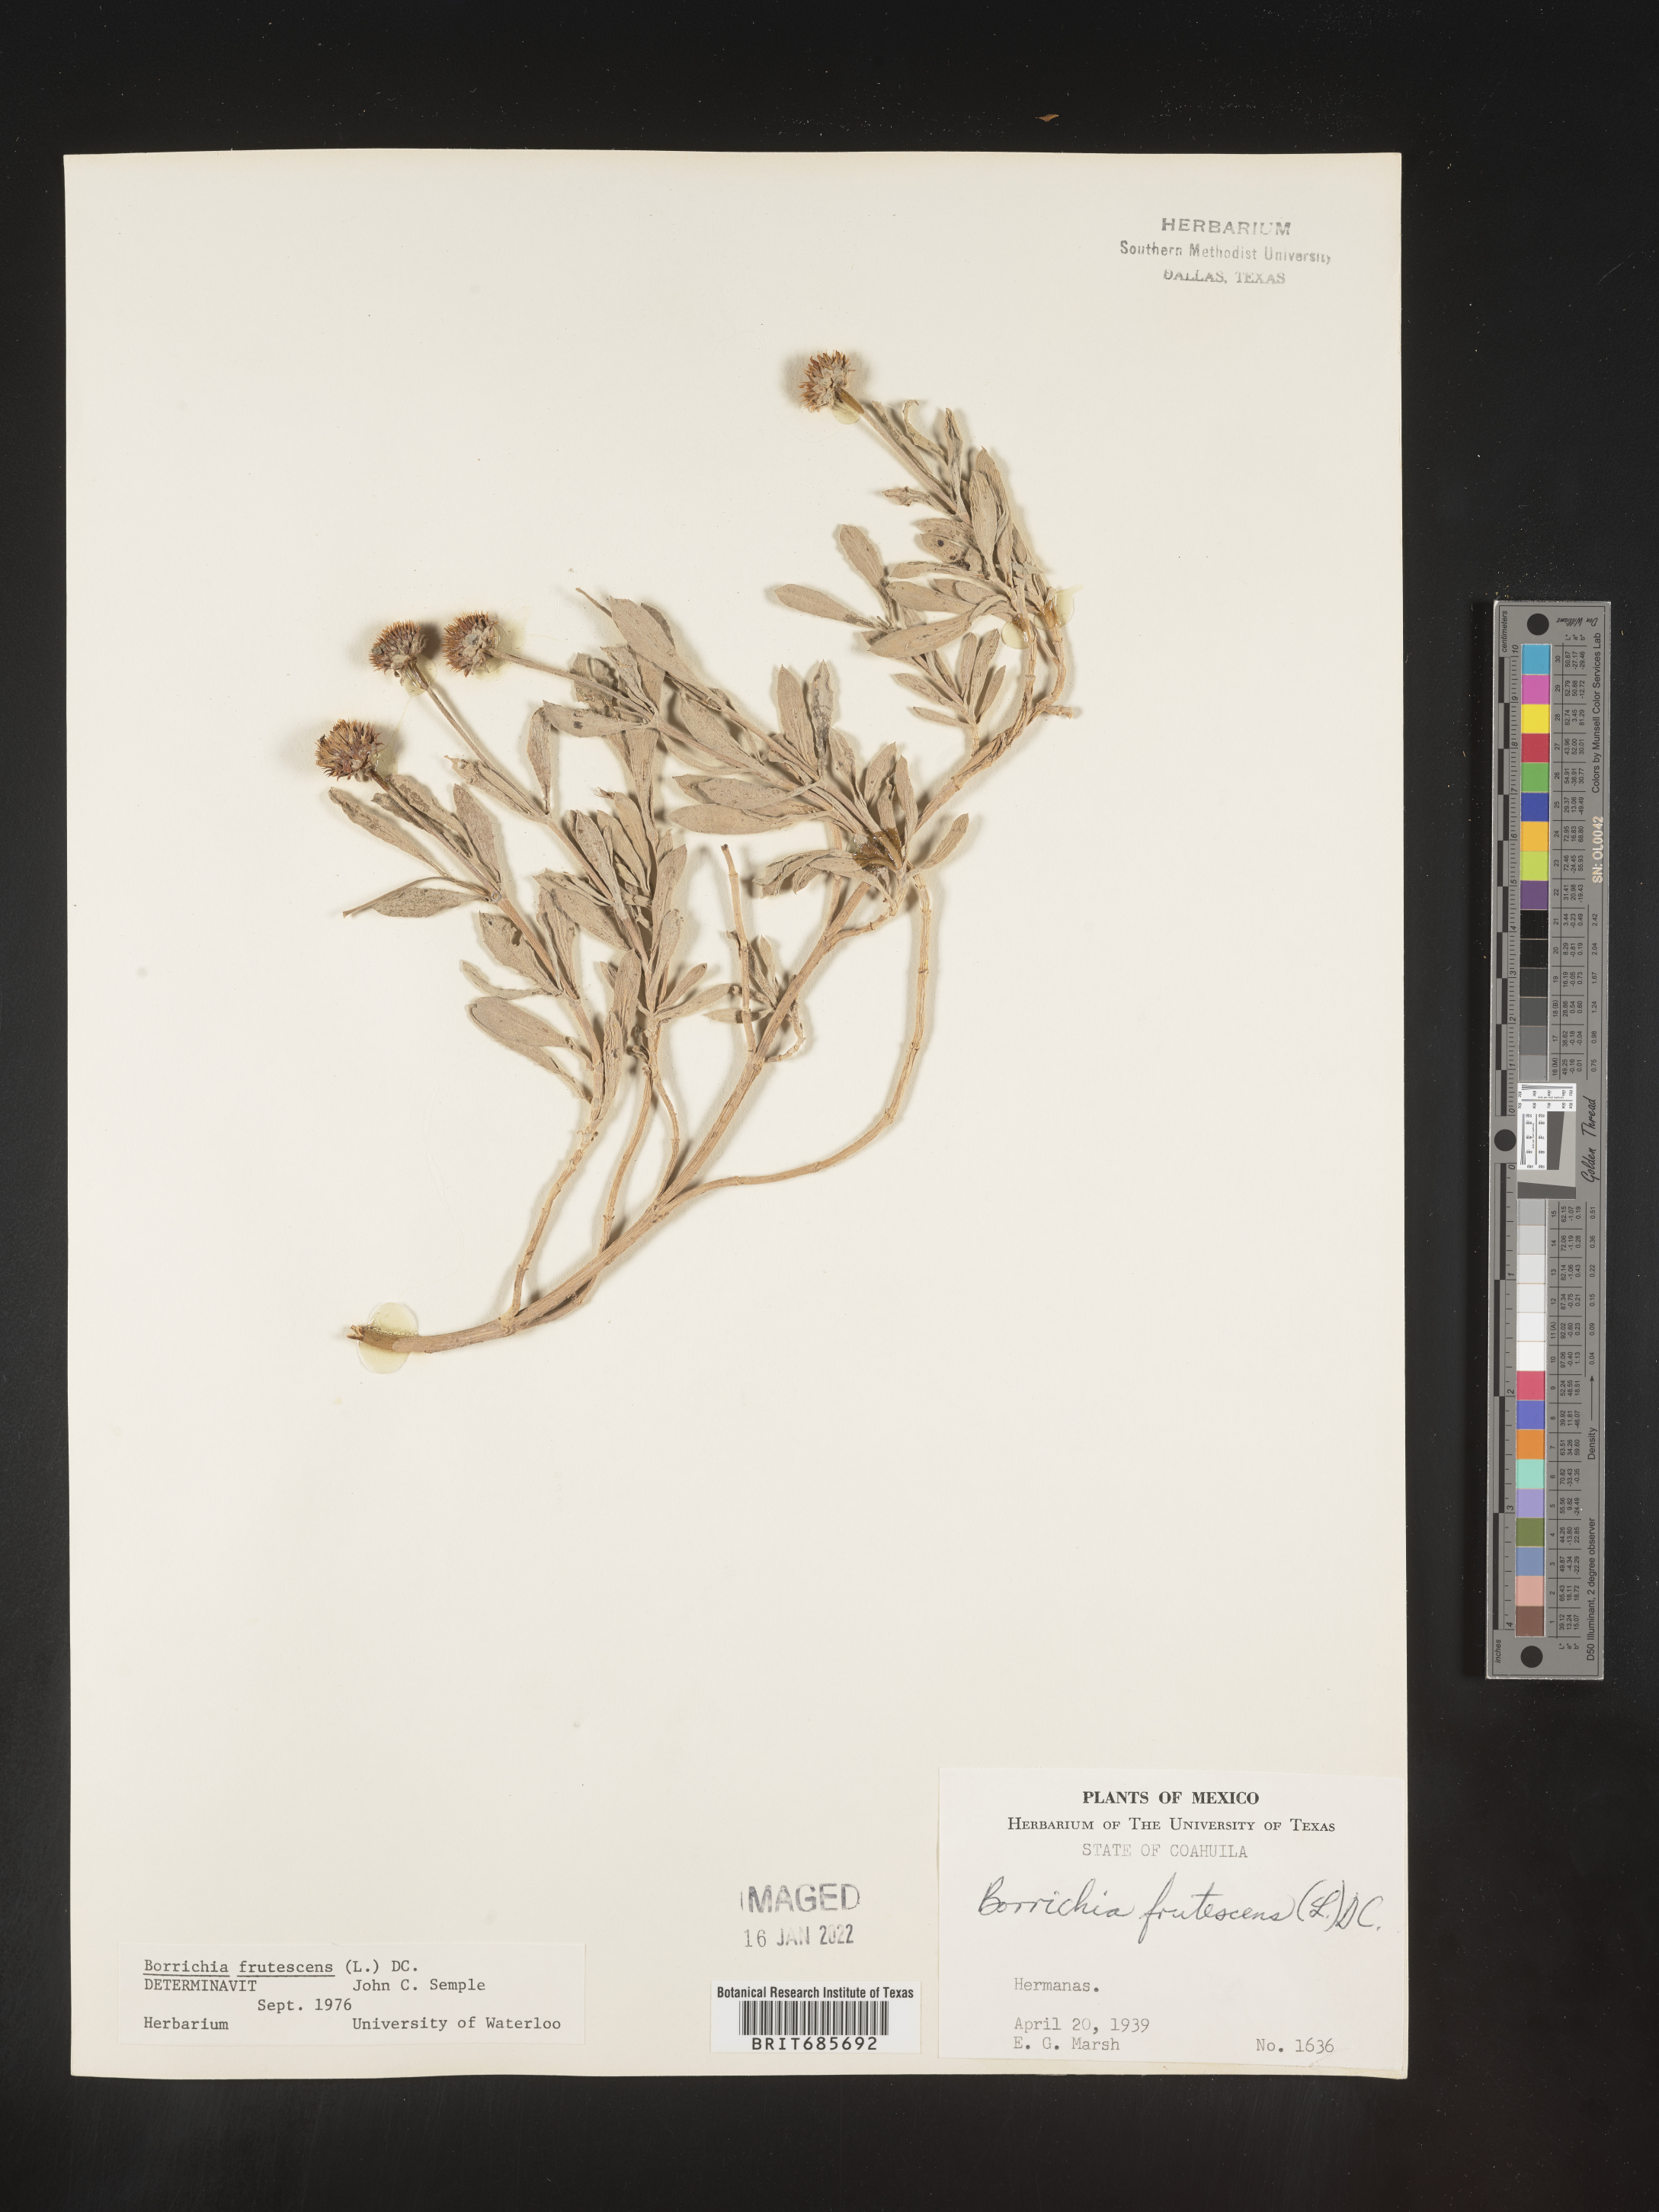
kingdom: Plantae
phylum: Tracheophyta
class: Magnoliopsida
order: Asterales
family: Asteraceae
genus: Borrichia
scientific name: Borrichia
